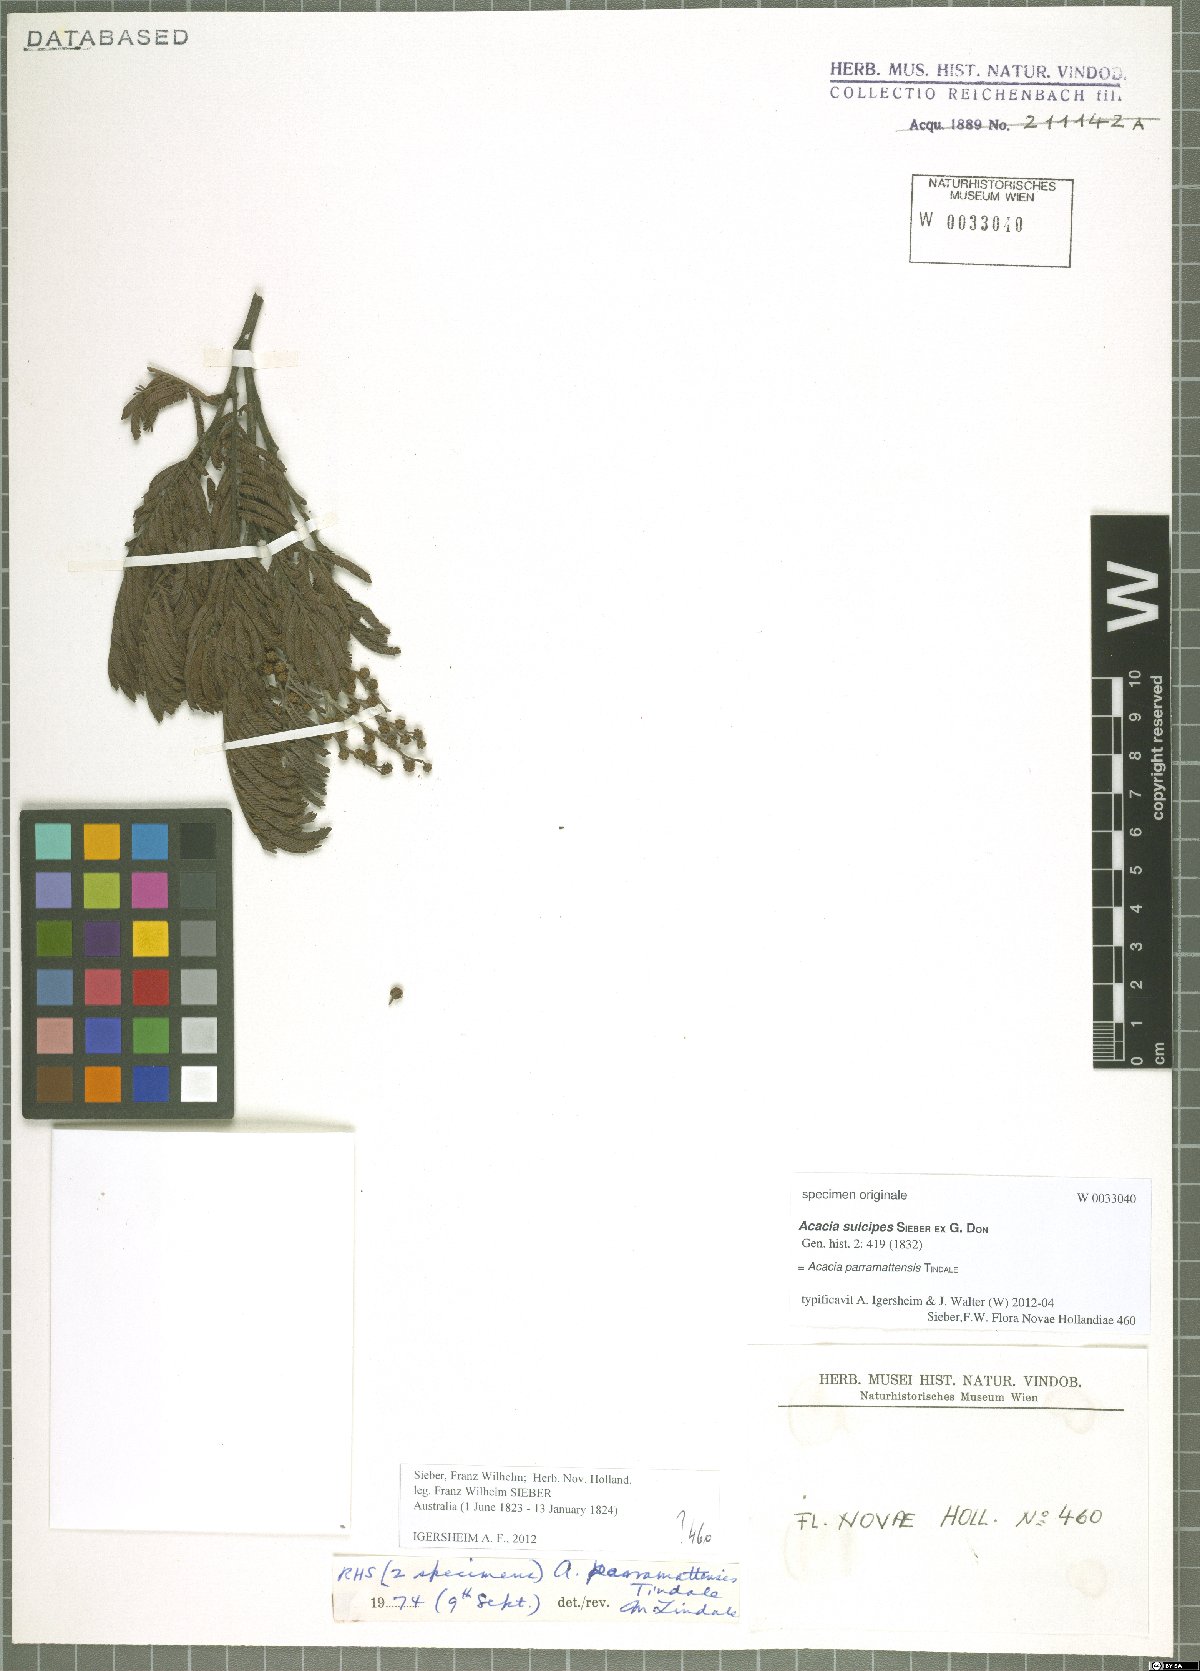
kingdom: Plantae
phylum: Tracheophyta
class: Magnoliopsida
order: Fabales
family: Fabaceae
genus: Acacia
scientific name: Acacia parramattensis
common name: Sydney green wattle
